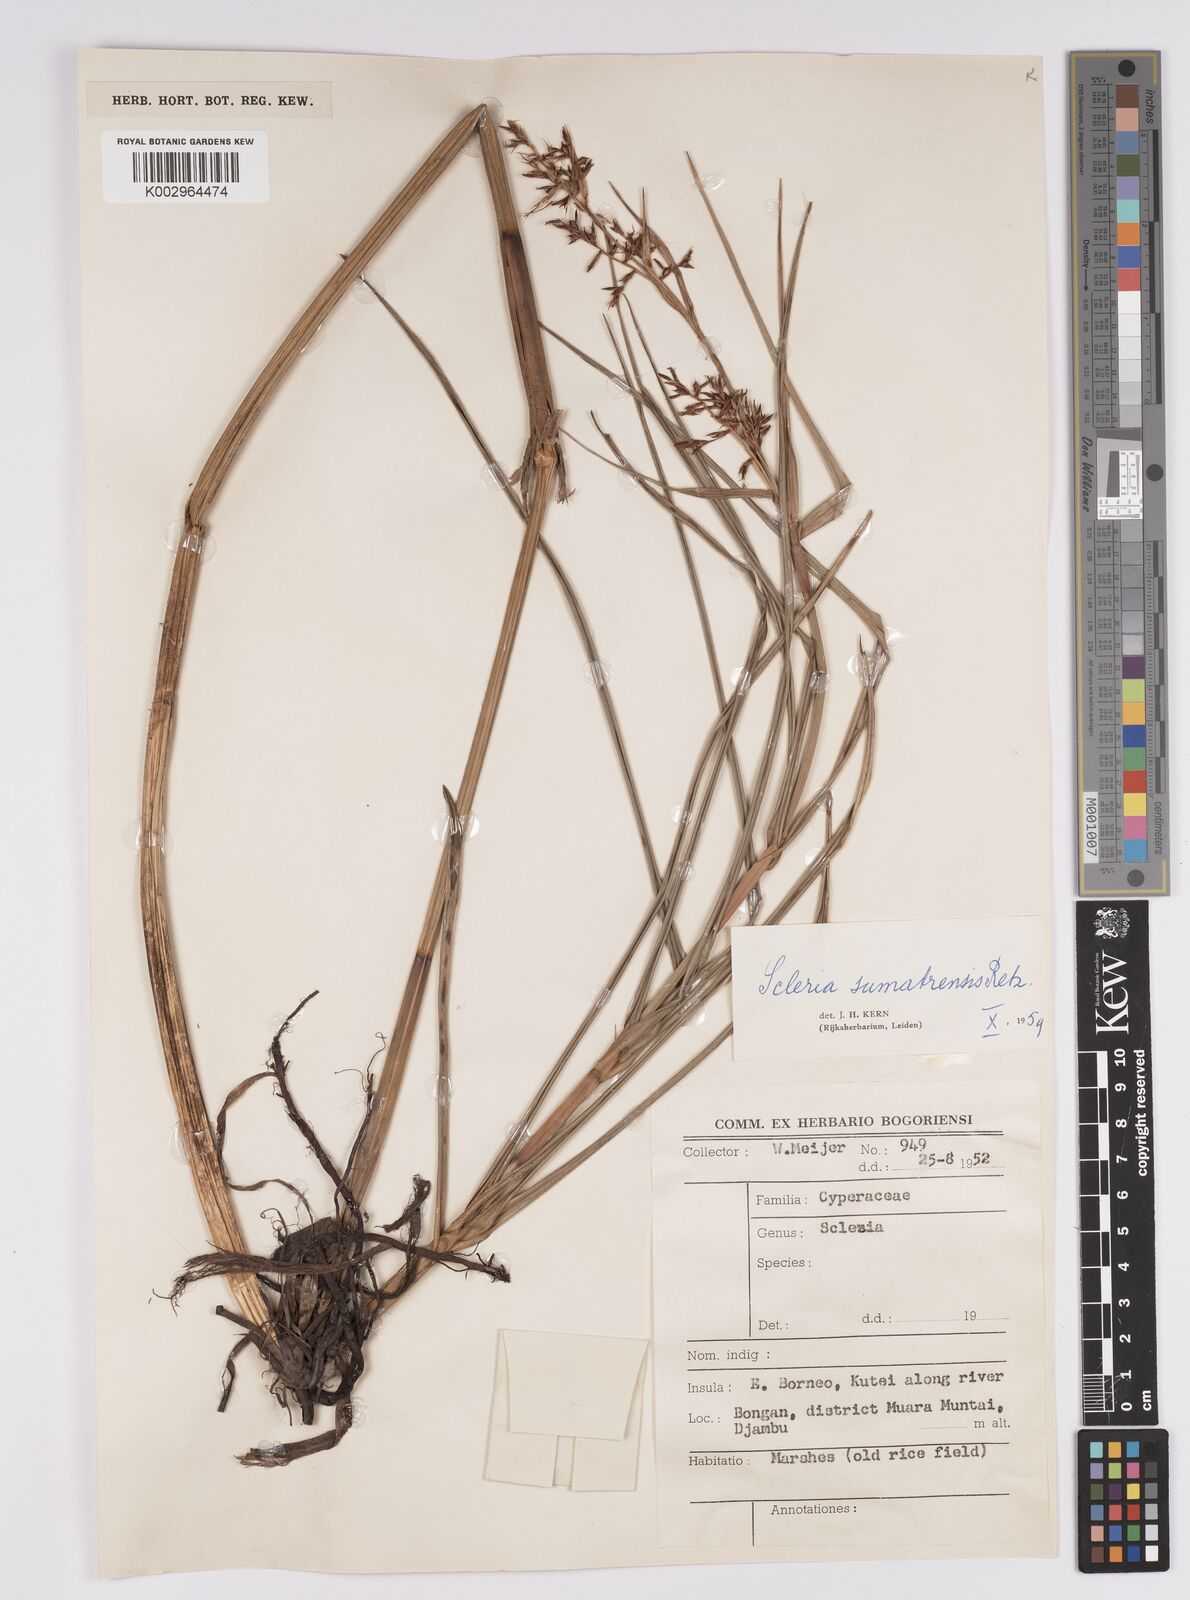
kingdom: Plantae
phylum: Tracheophyta
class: Liliopsida
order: Poales
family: Cyperaceae
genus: Scleria
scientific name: Scleria sumatrensis
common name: Sumatran scleria
